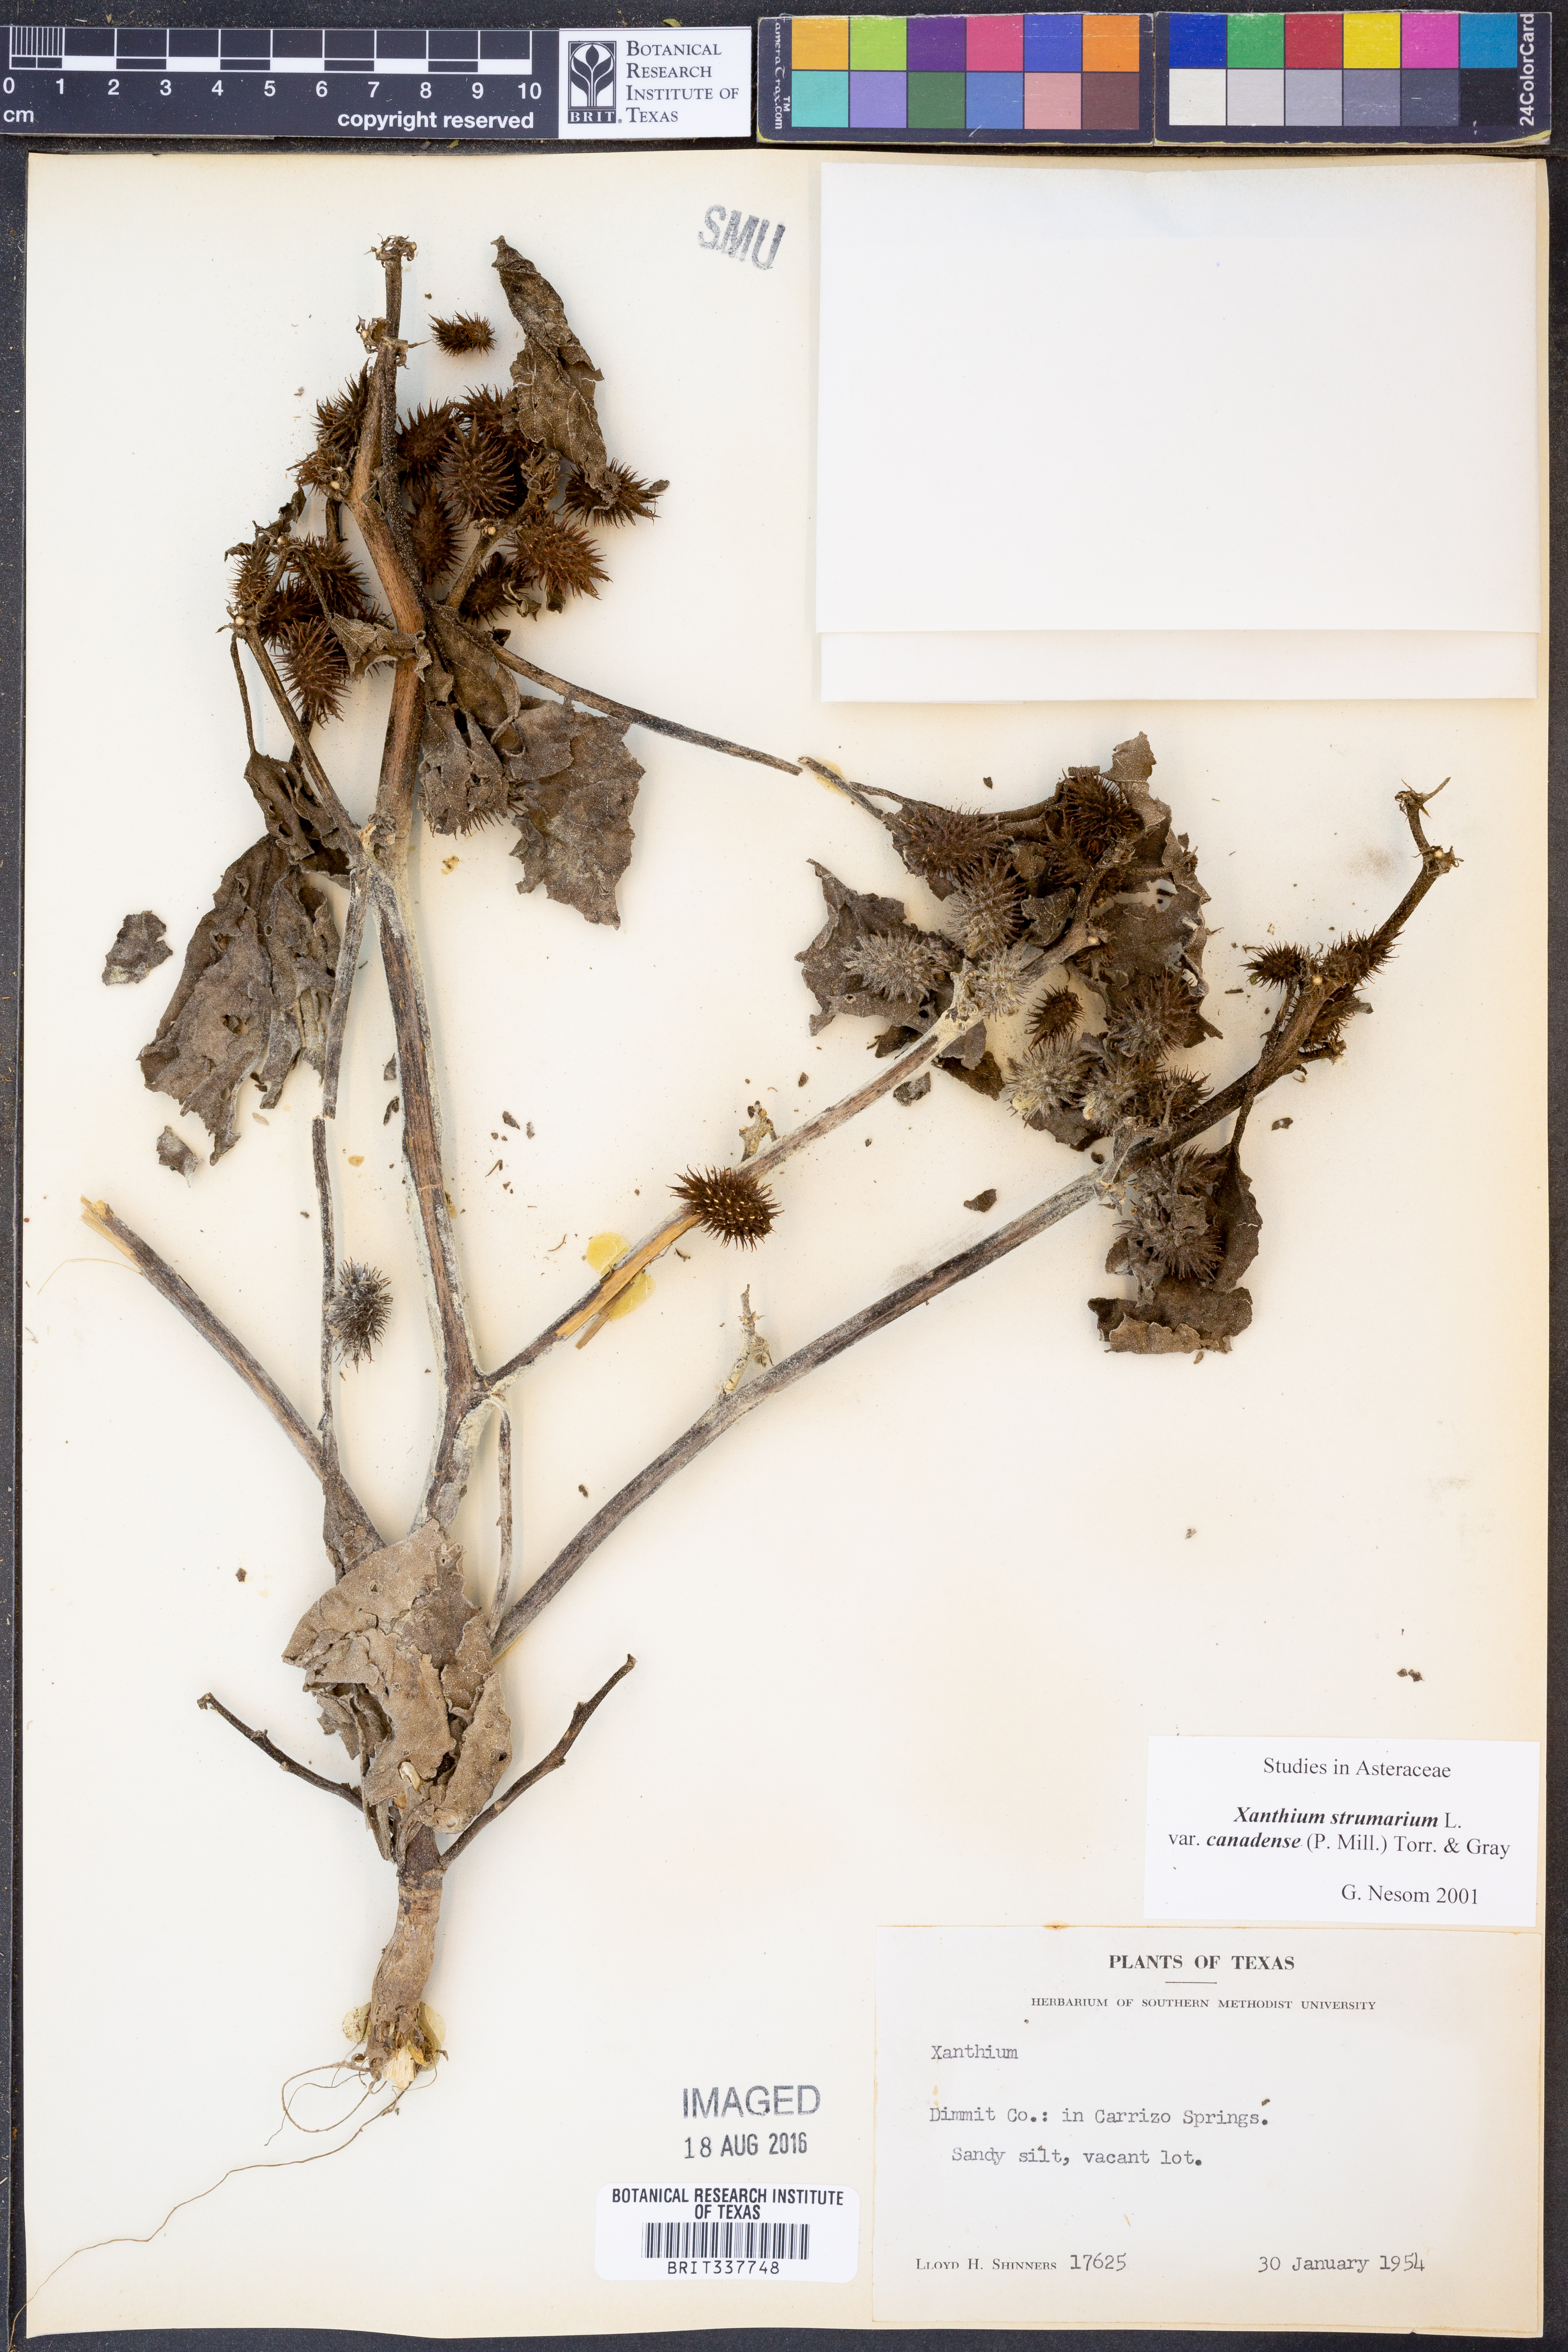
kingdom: Plantae
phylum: Tracheophyta
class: Magnoliopsida
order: Asterales
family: Asteraceae
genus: Xanthium
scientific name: Xanthium orientale
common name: Californian burr
